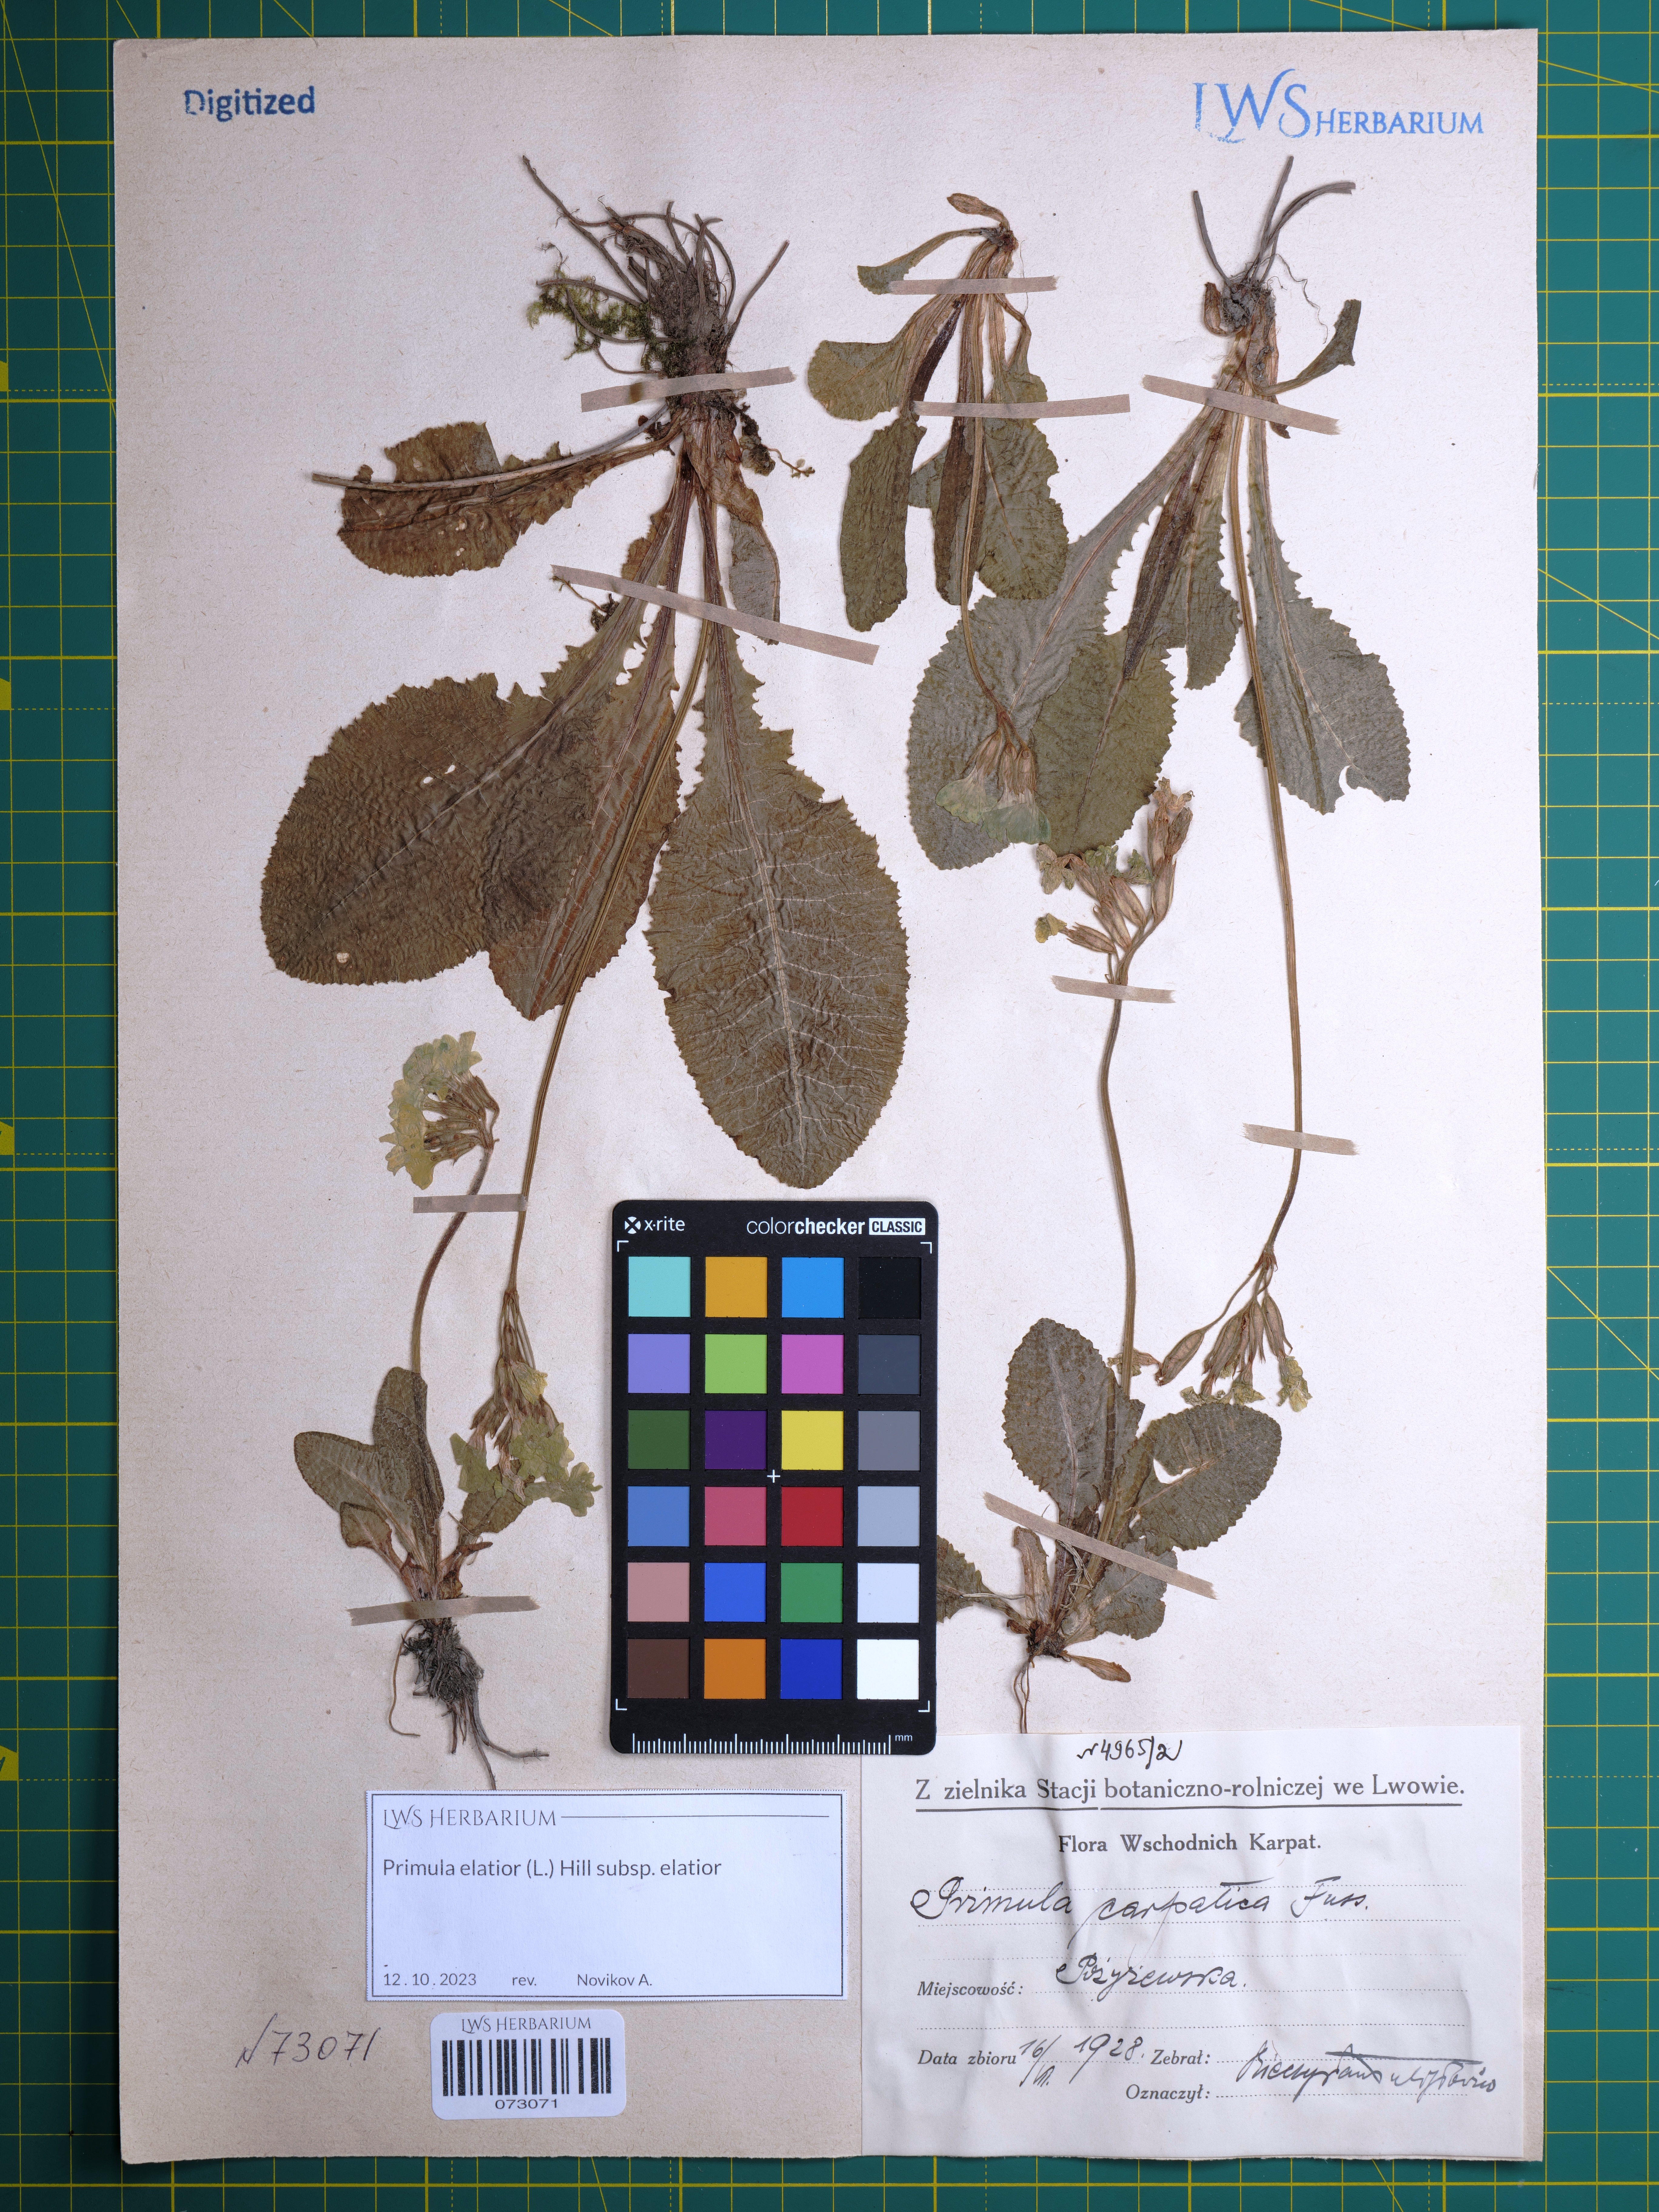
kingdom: Plantae
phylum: Tracheophyta
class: Magnoliopsida
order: Ericales
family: Primulaceae
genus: Primula
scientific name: Primula elatior
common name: Oxlip
